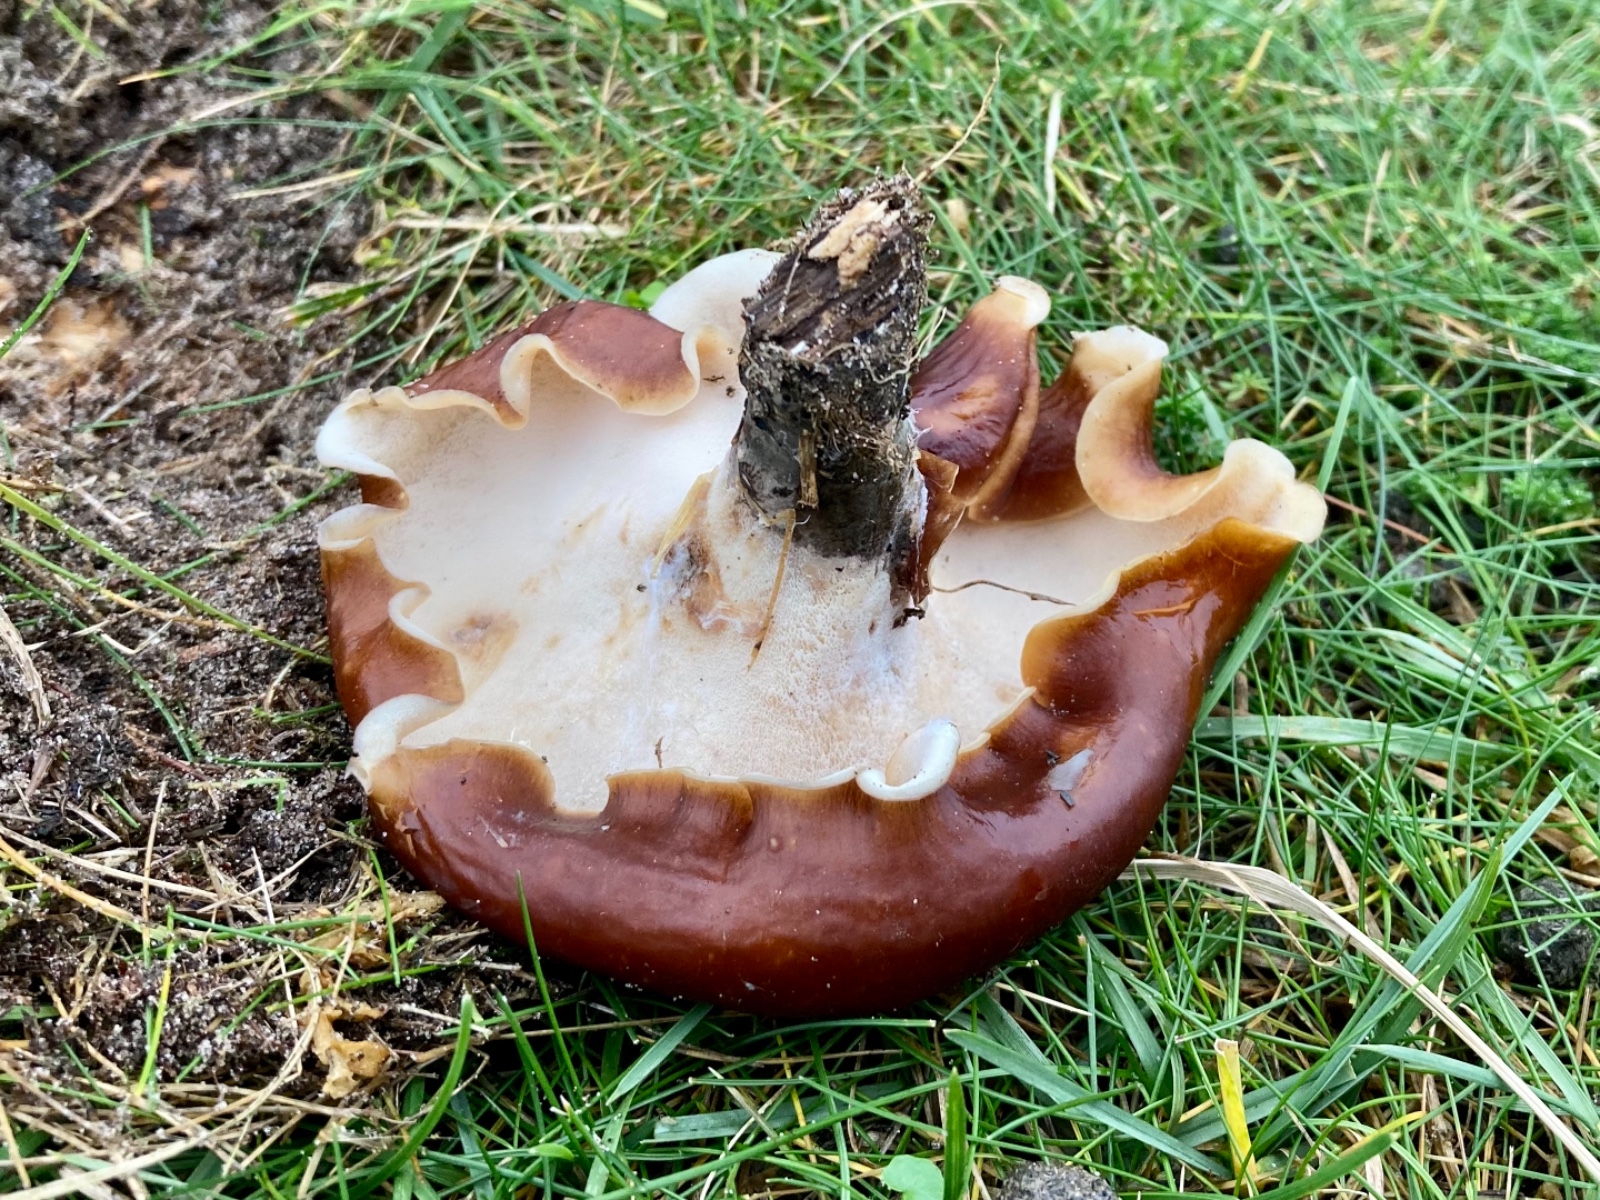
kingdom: Fungi
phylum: Basidiomycota
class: Agaricomycetes
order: Polyporales
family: Polyporaceae
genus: Picipes
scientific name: Picipes badius
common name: kastaniebrun stilkporesvamp
